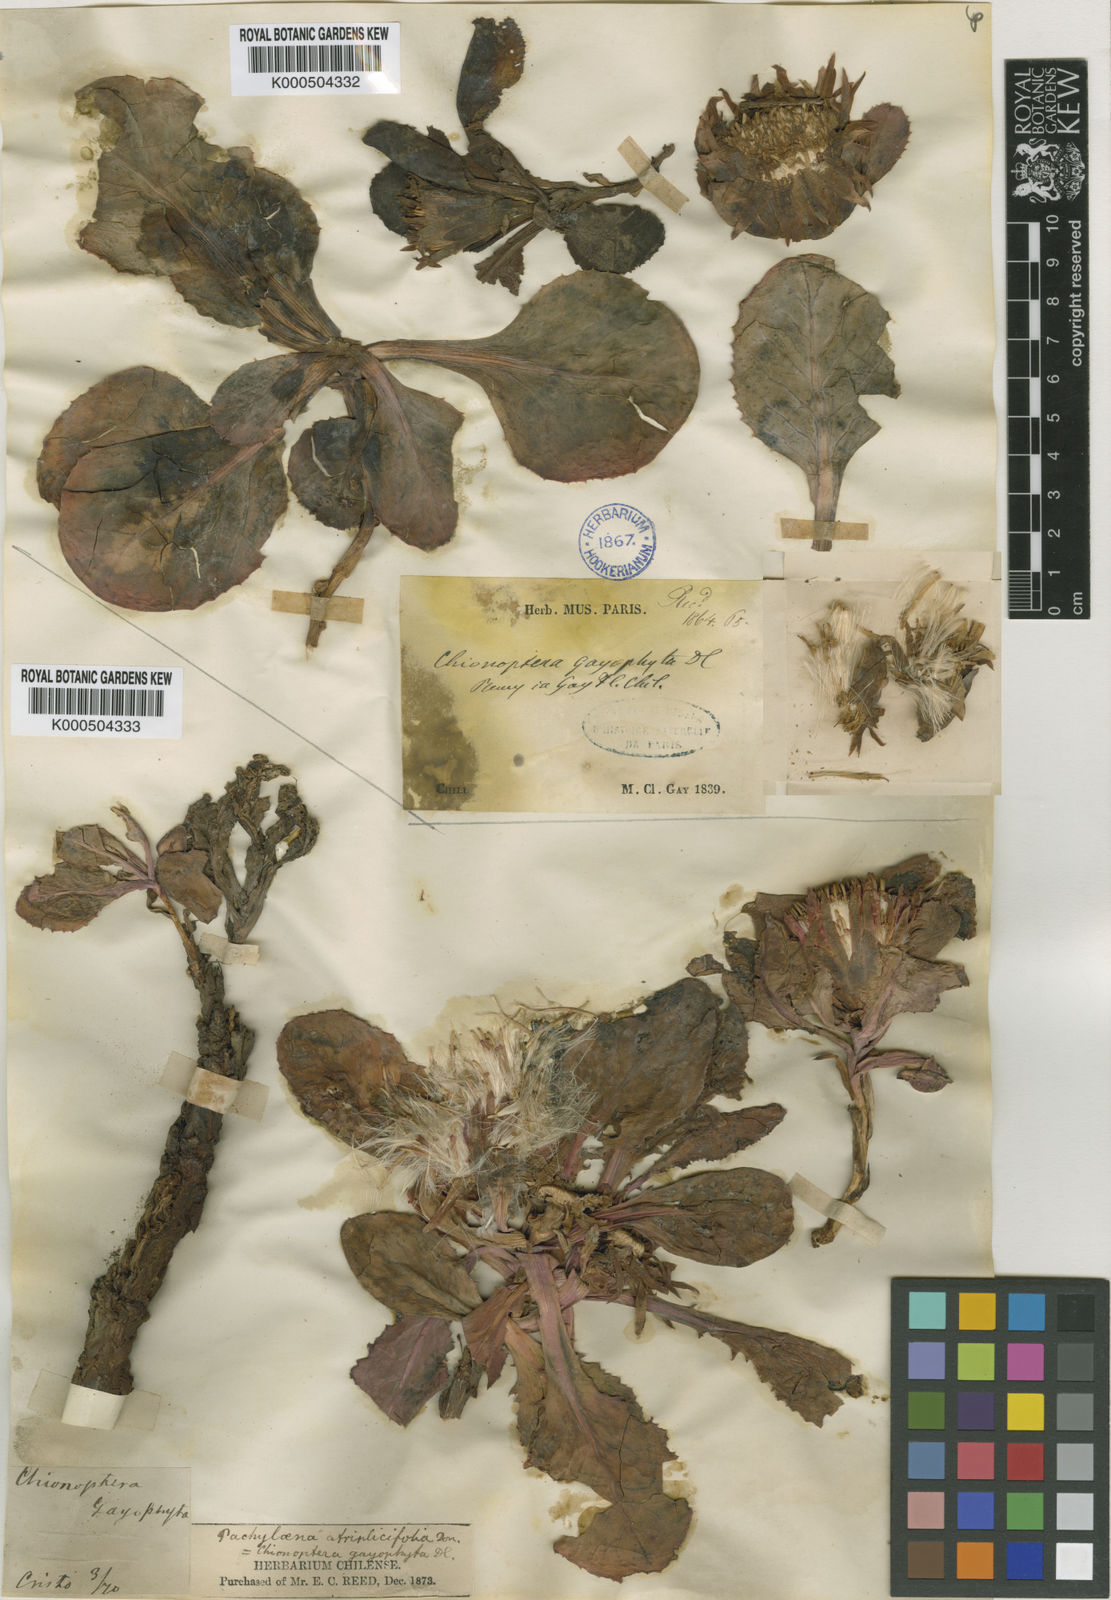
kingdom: Plantae
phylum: Tracheophyta
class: Magnoliopsida
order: Asterales
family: Asteraceae
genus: Pachylaena
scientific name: Pachylaena
